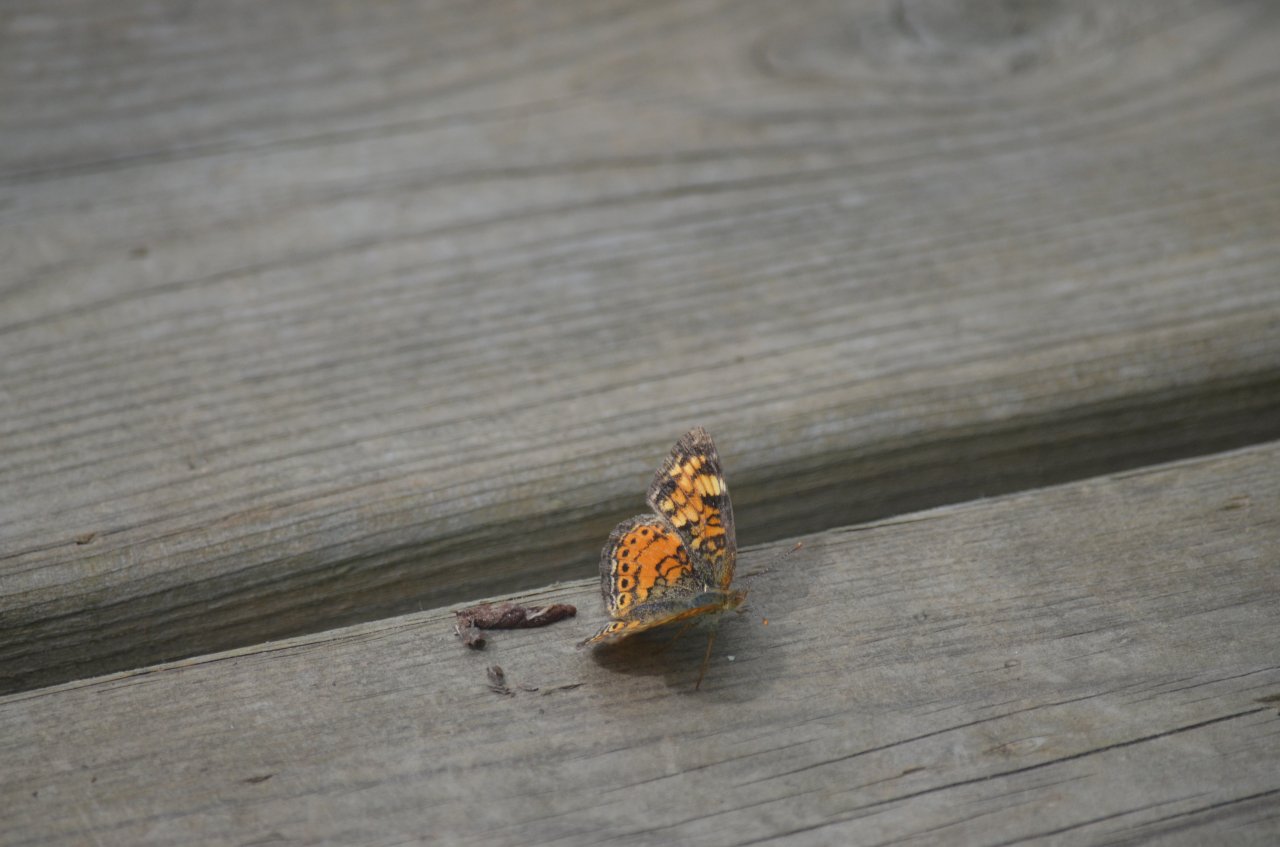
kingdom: Animalia
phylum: Arthropoda
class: Insecta
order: Lepidoptera
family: Nymphalidae
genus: Phyciodes
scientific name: Phyciodes tharos
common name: Northern Crescent
